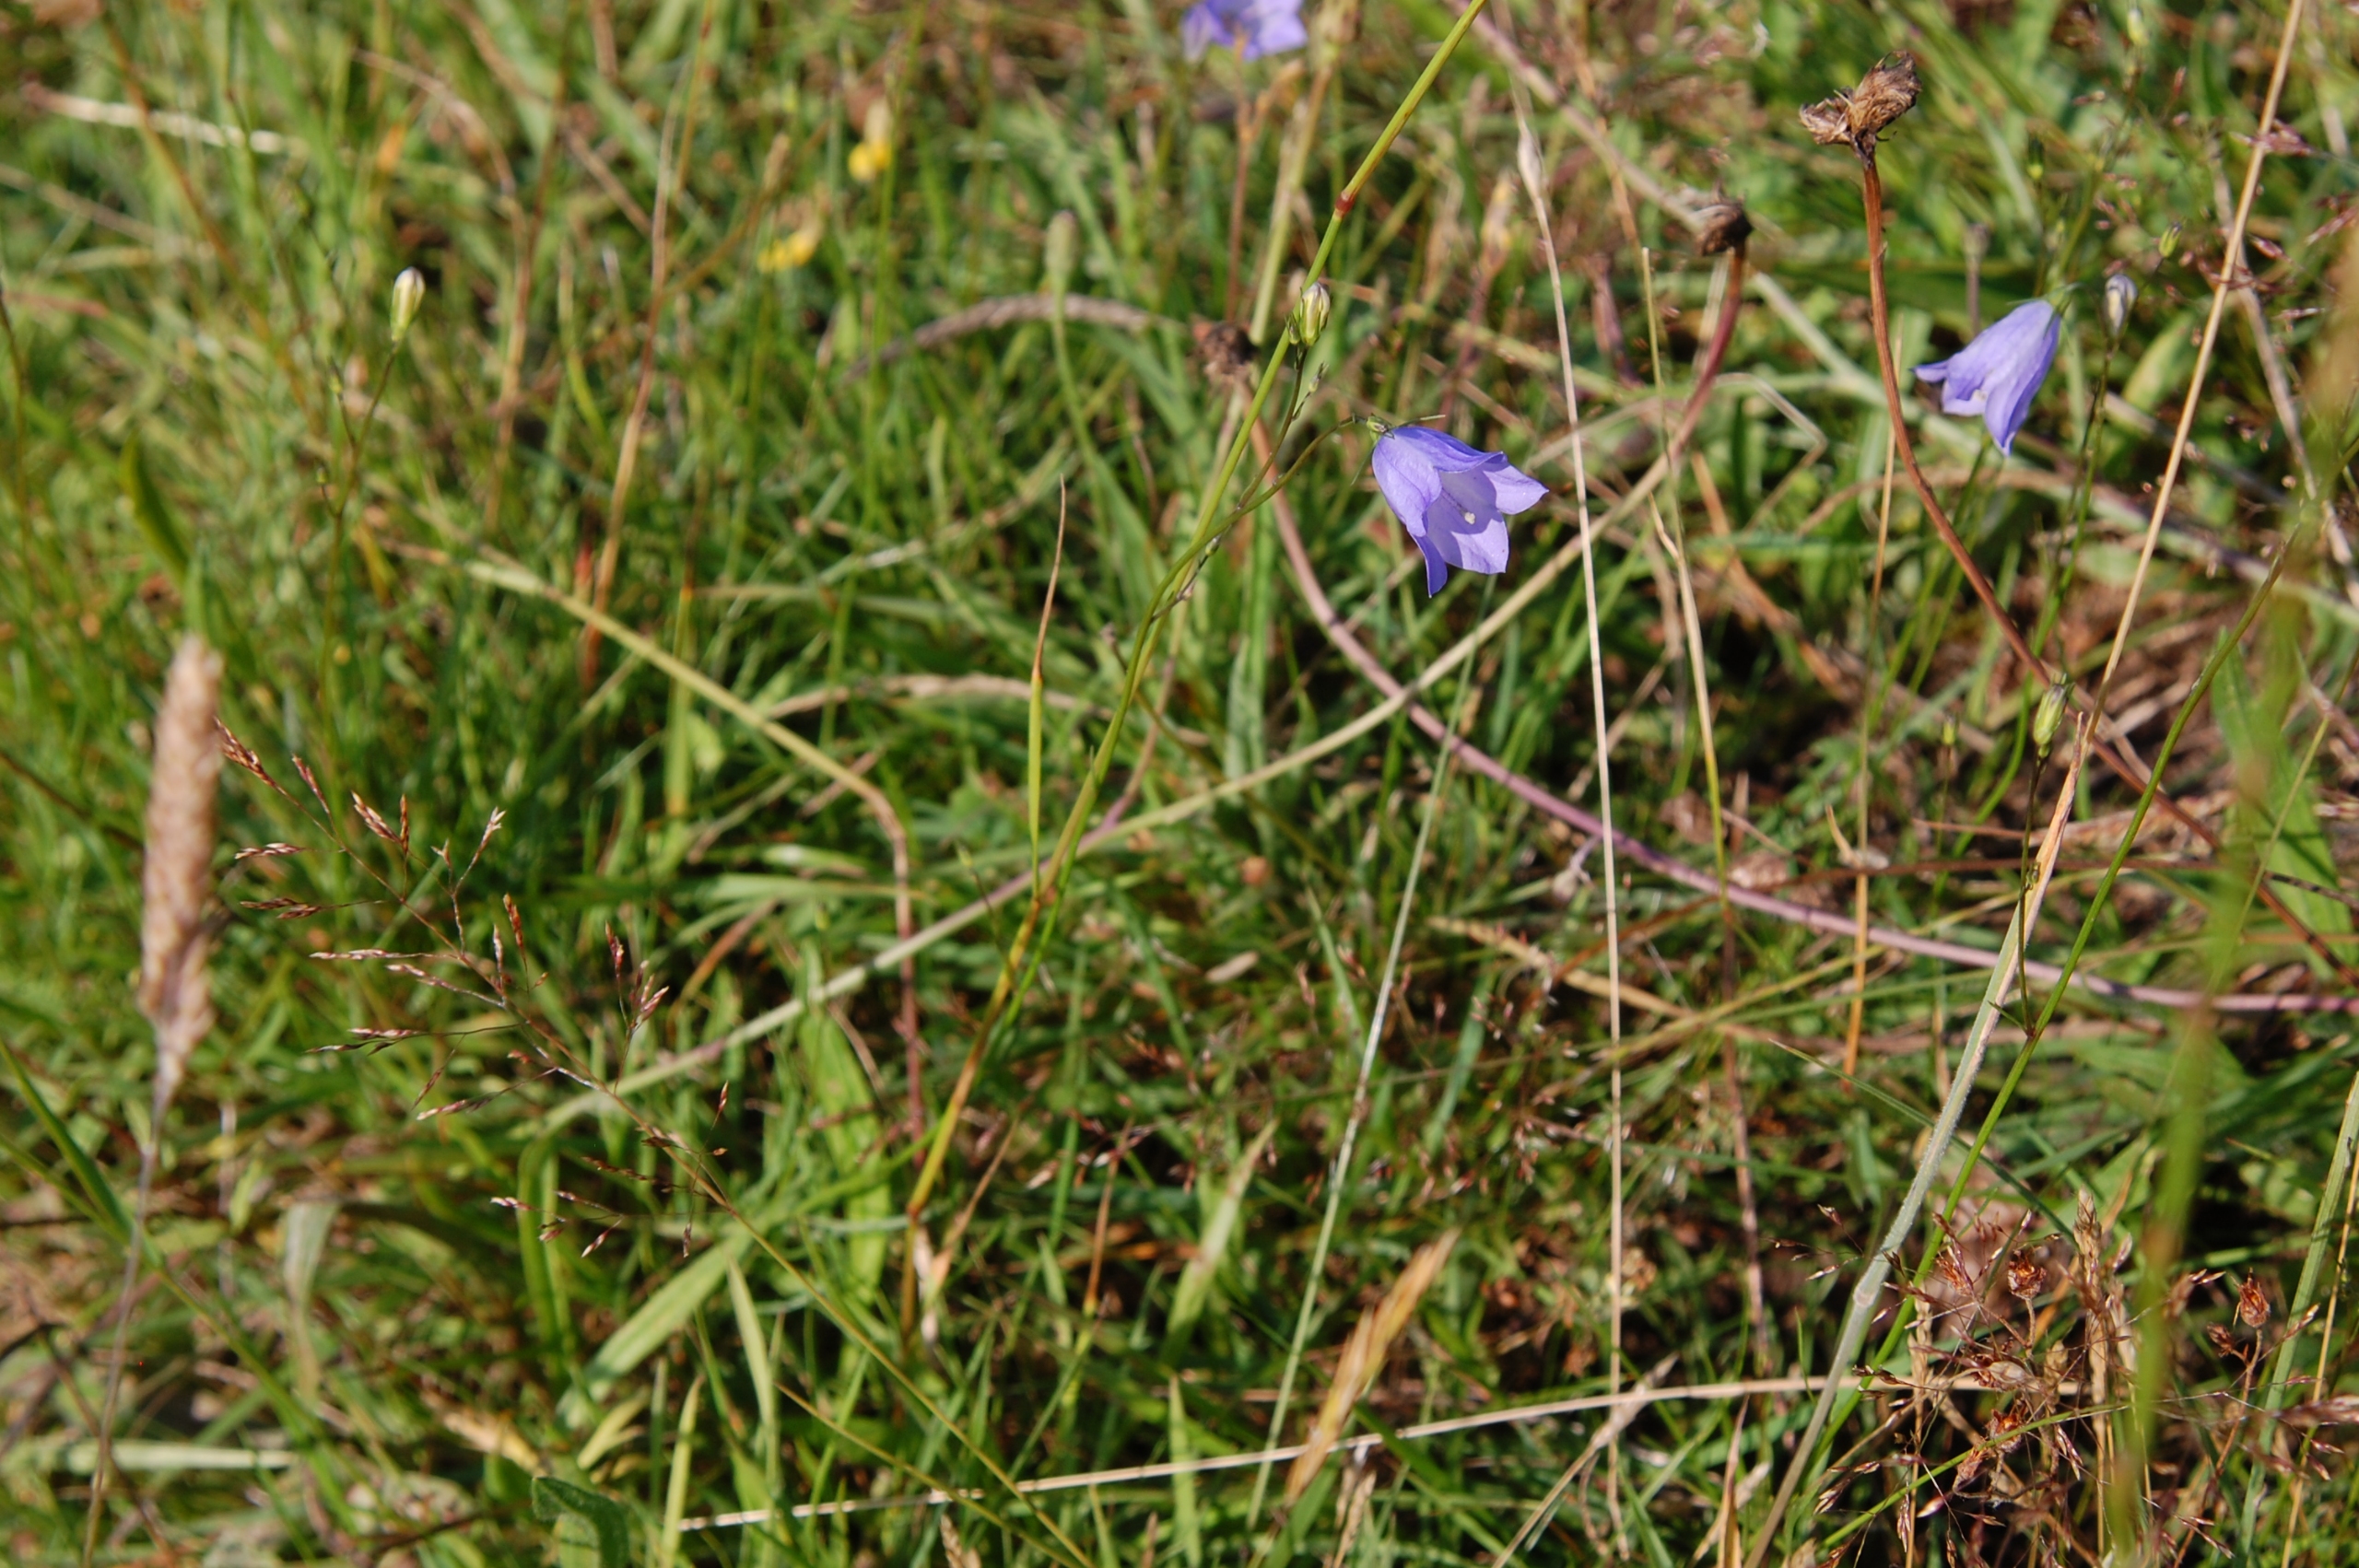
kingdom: Plantae
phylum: Tracheophyta
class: Magnoliopsida
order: Asterales
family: Campanulaceae
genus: Campanula
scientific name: Campanula rotundifolia
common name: Liden klokke
